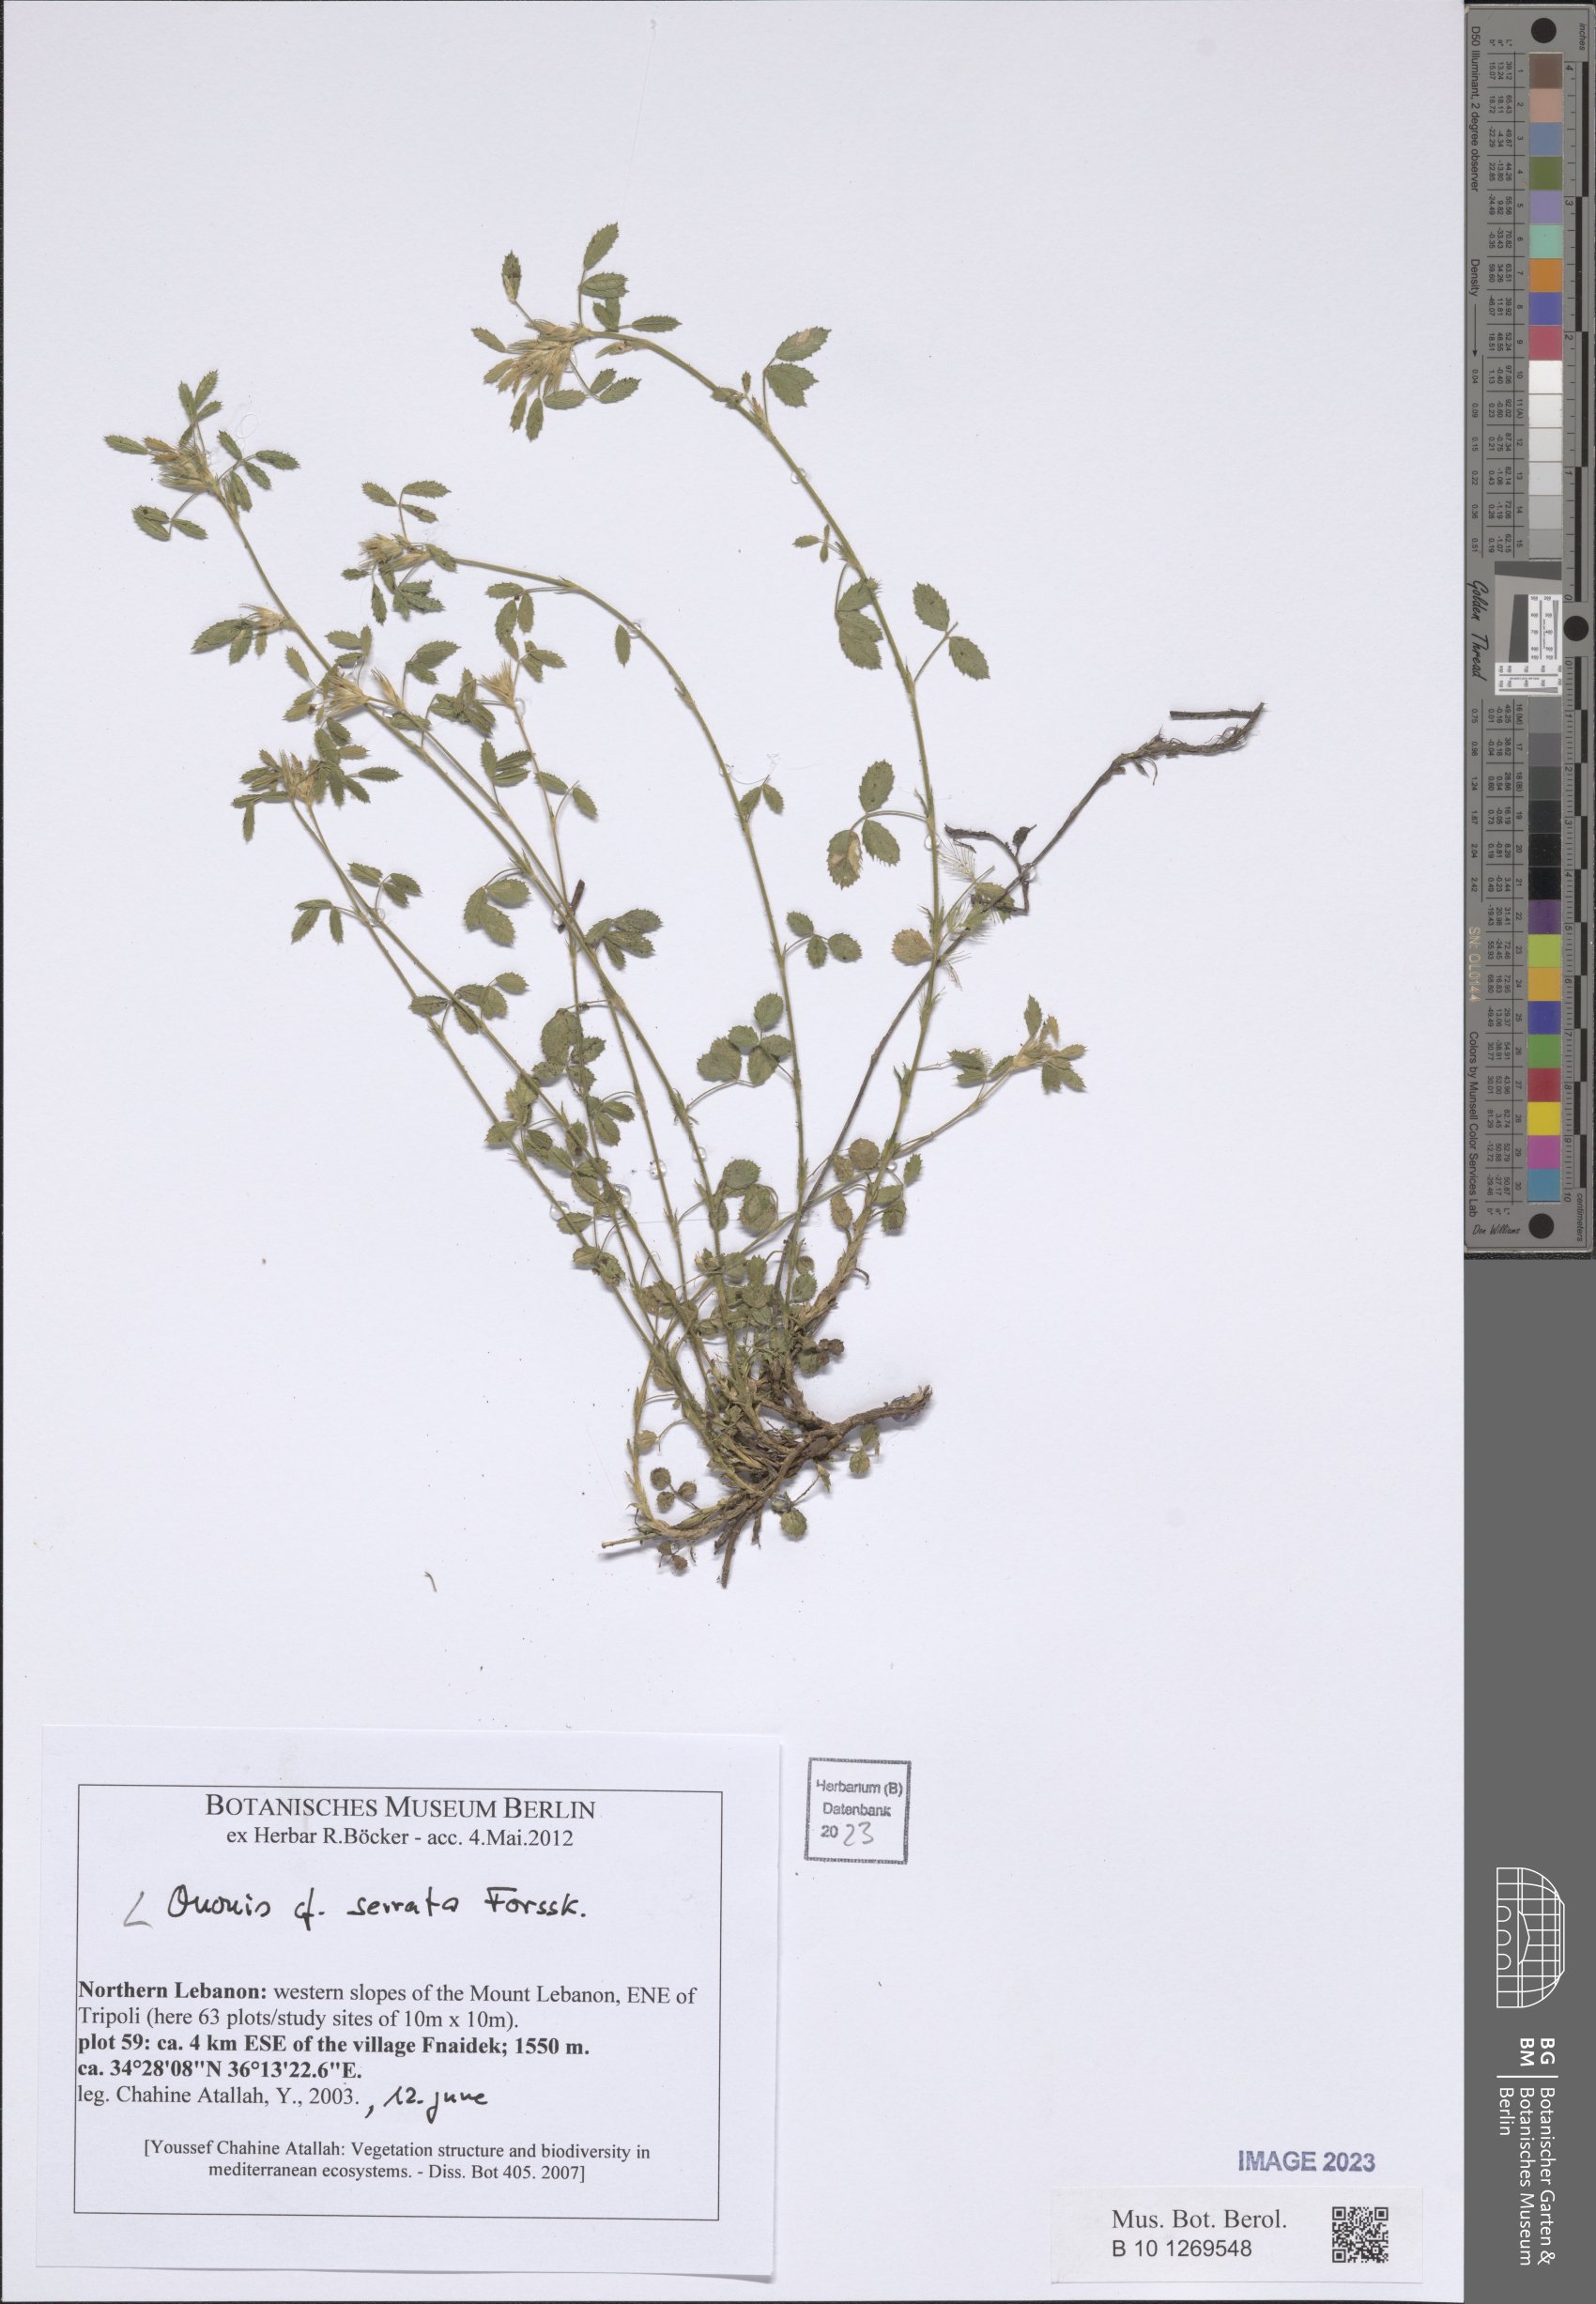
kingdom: Plantae
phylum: Tracheophyta
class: Magnoliopsida
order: Fabales
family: Fabaceae
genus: Ononis
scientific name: Ononis serrata
